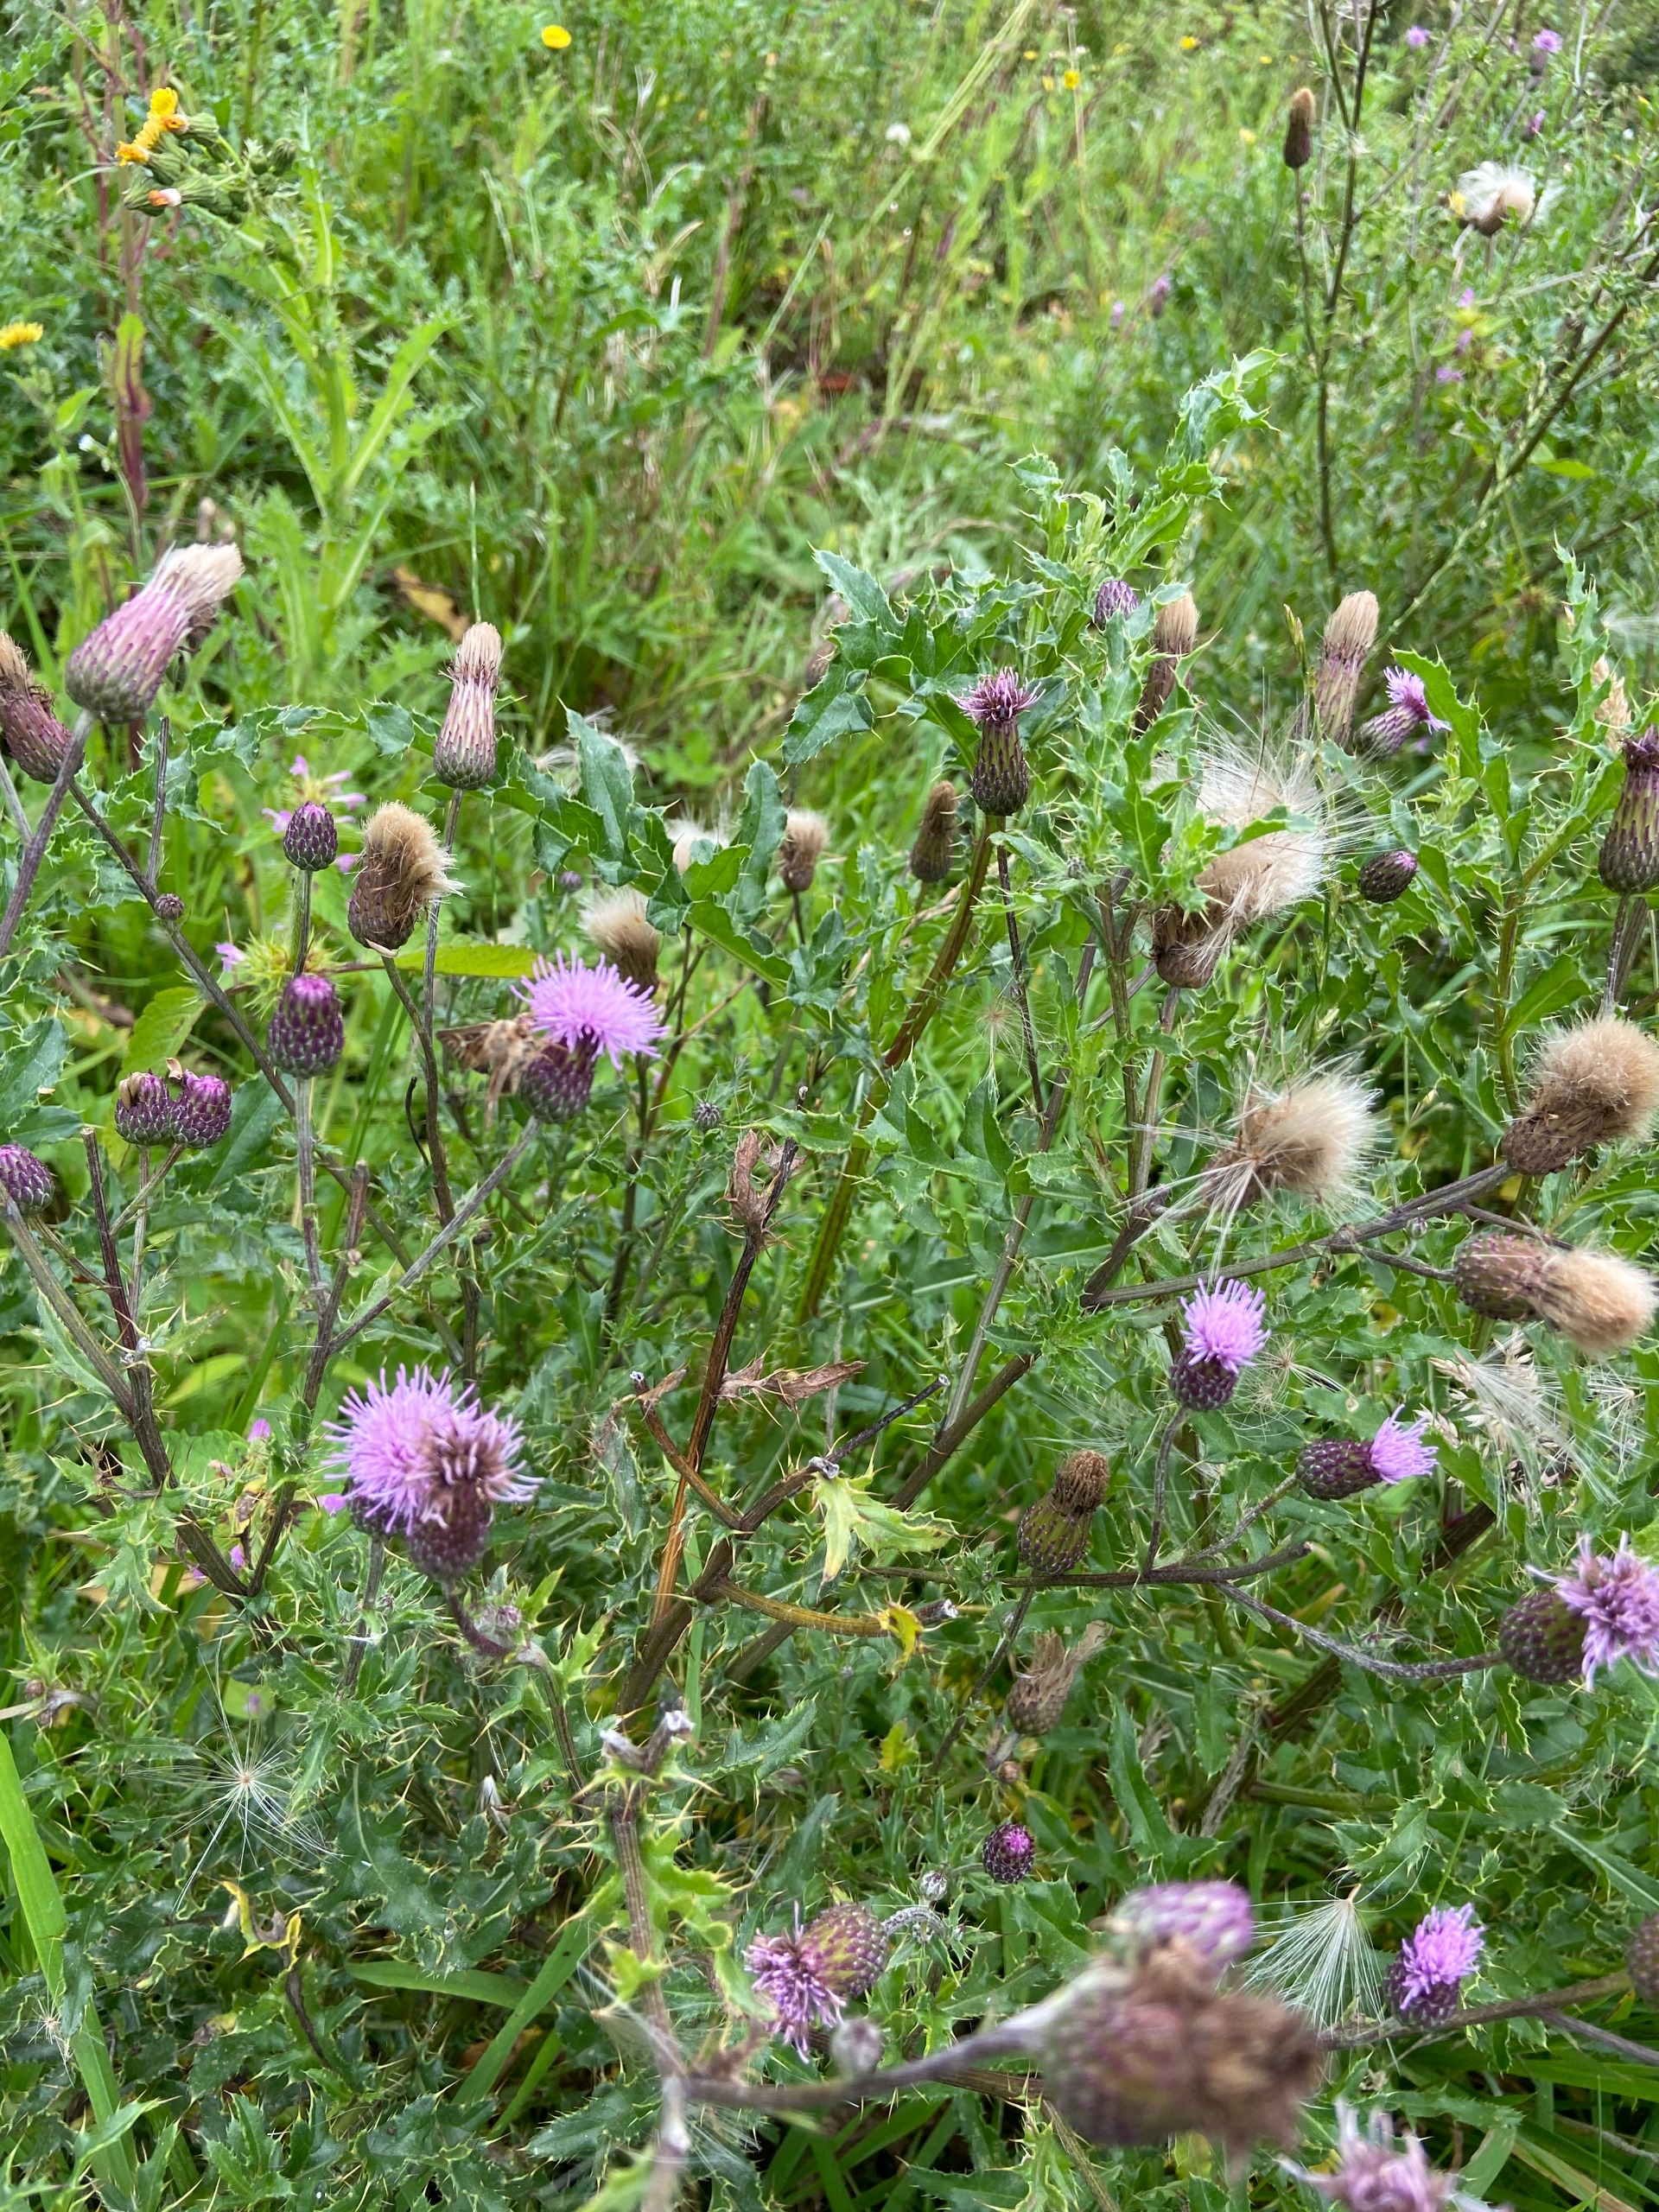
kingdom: Plantae
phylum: Tracheophyta
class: Magnoliopsida
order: Asterales
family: Asteraceae
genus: Cirsium
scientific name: Cirsium arvense
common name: Ager-tidsel
